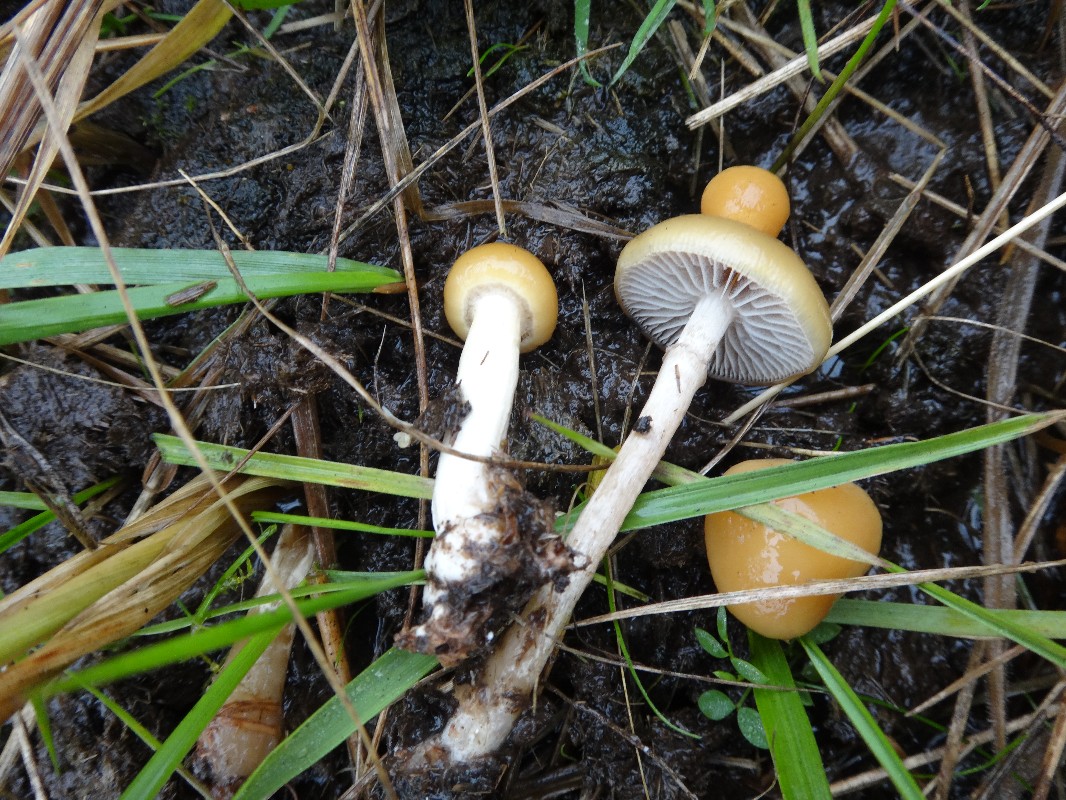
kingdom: Fungi
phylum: Basidiomycota
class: Agaricomycetes
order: Agaricales
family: Strophariaceae
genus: Protostropharia
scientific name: Protostropharia semiglobata
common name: halvkugleformet bredblad
